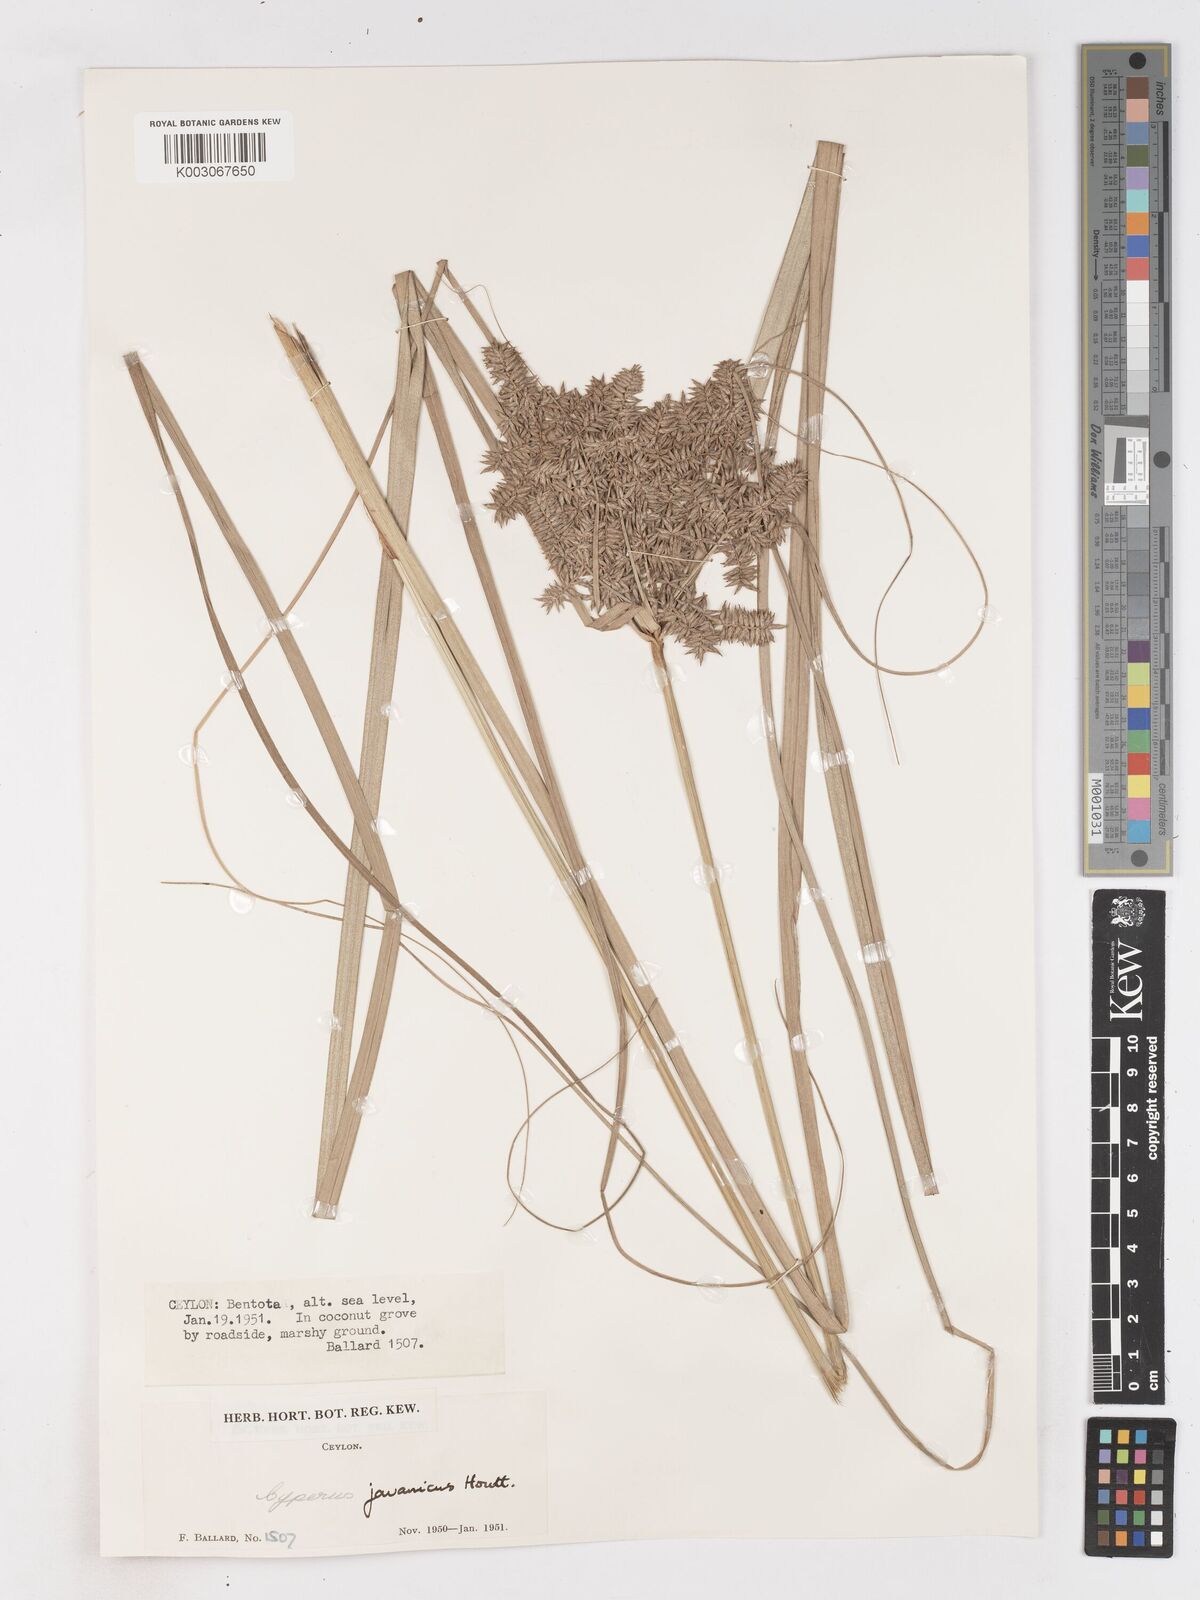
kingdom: Plantae
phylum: Tracheophyta
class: Liliopsida
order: Poales
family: Cyperaceae
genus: Cyperus
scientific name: Cyperus javanicus
